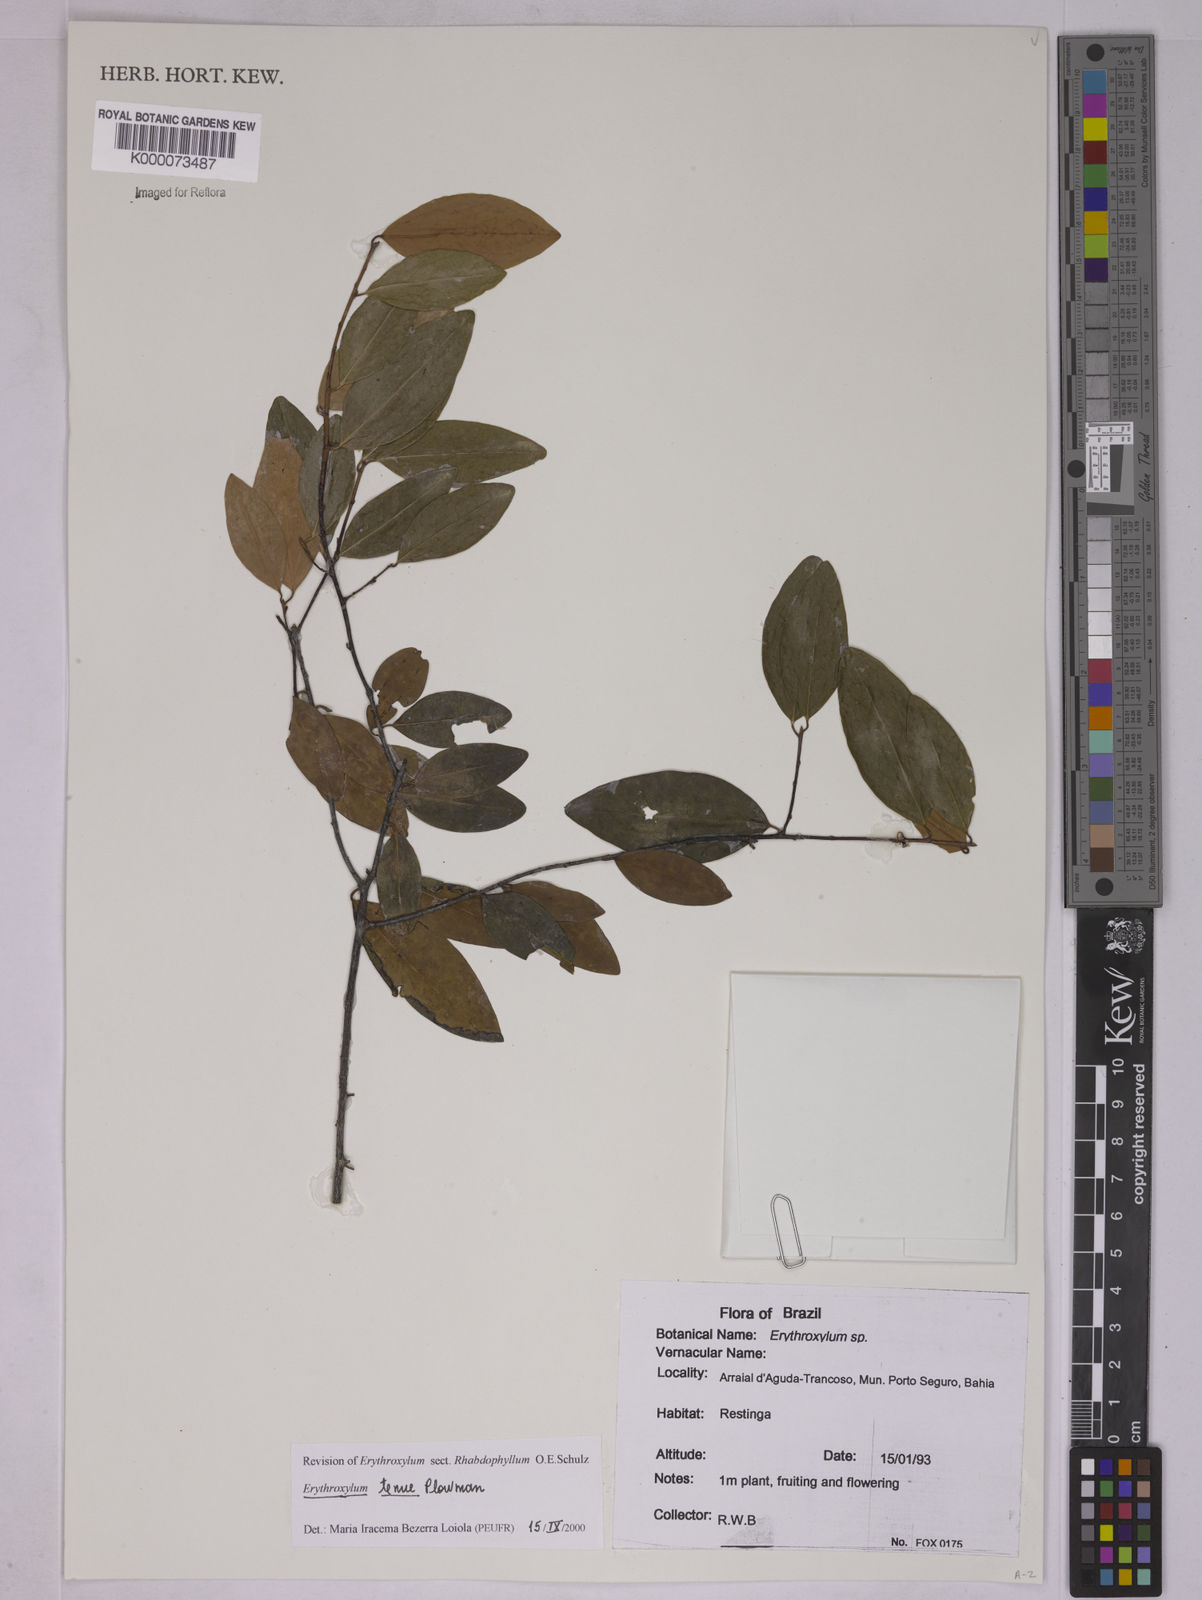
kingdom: Plantae
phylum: Tracheophyta
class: Magnoliopsida
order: Malpighiales
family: Erythroxylaceae
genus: Erythroxylum
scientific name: Erythroxylum tenue
